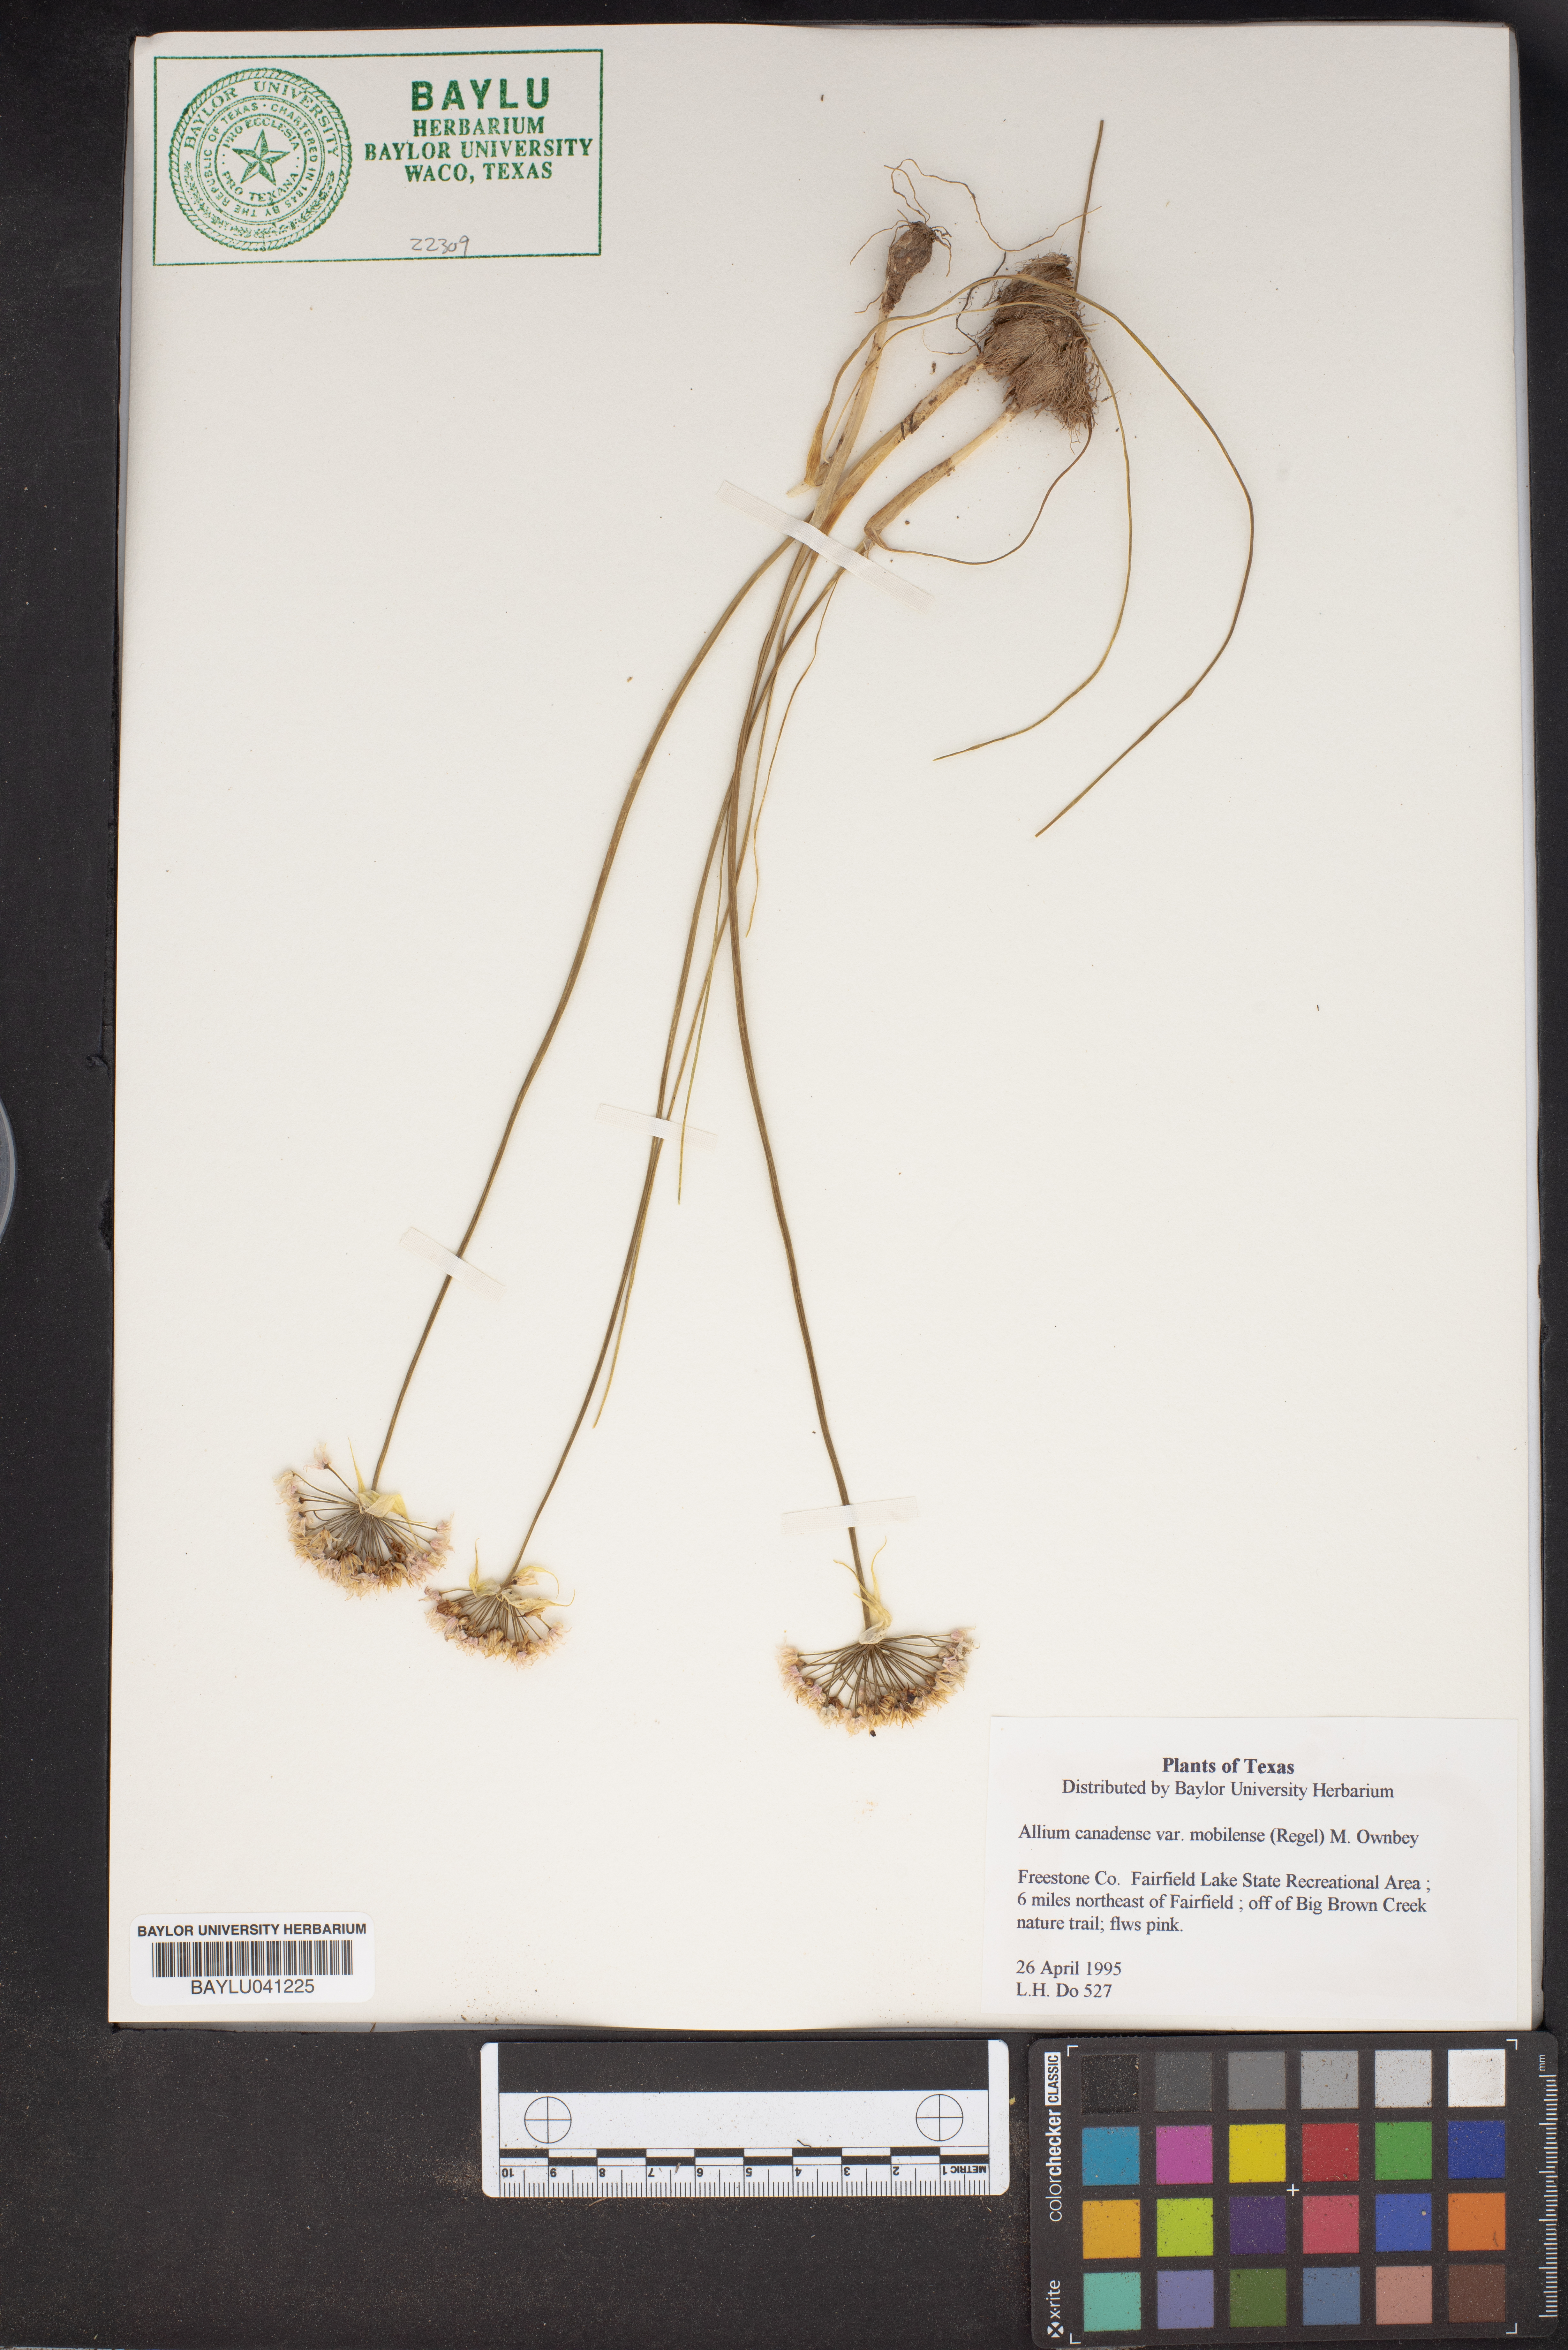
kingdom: Plantae
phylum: Tracheophyta
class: Liliopsida
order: Asparagales
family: Amaryllidaceae
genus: Allium
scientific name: Allium canadense
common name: Meadow garlic
